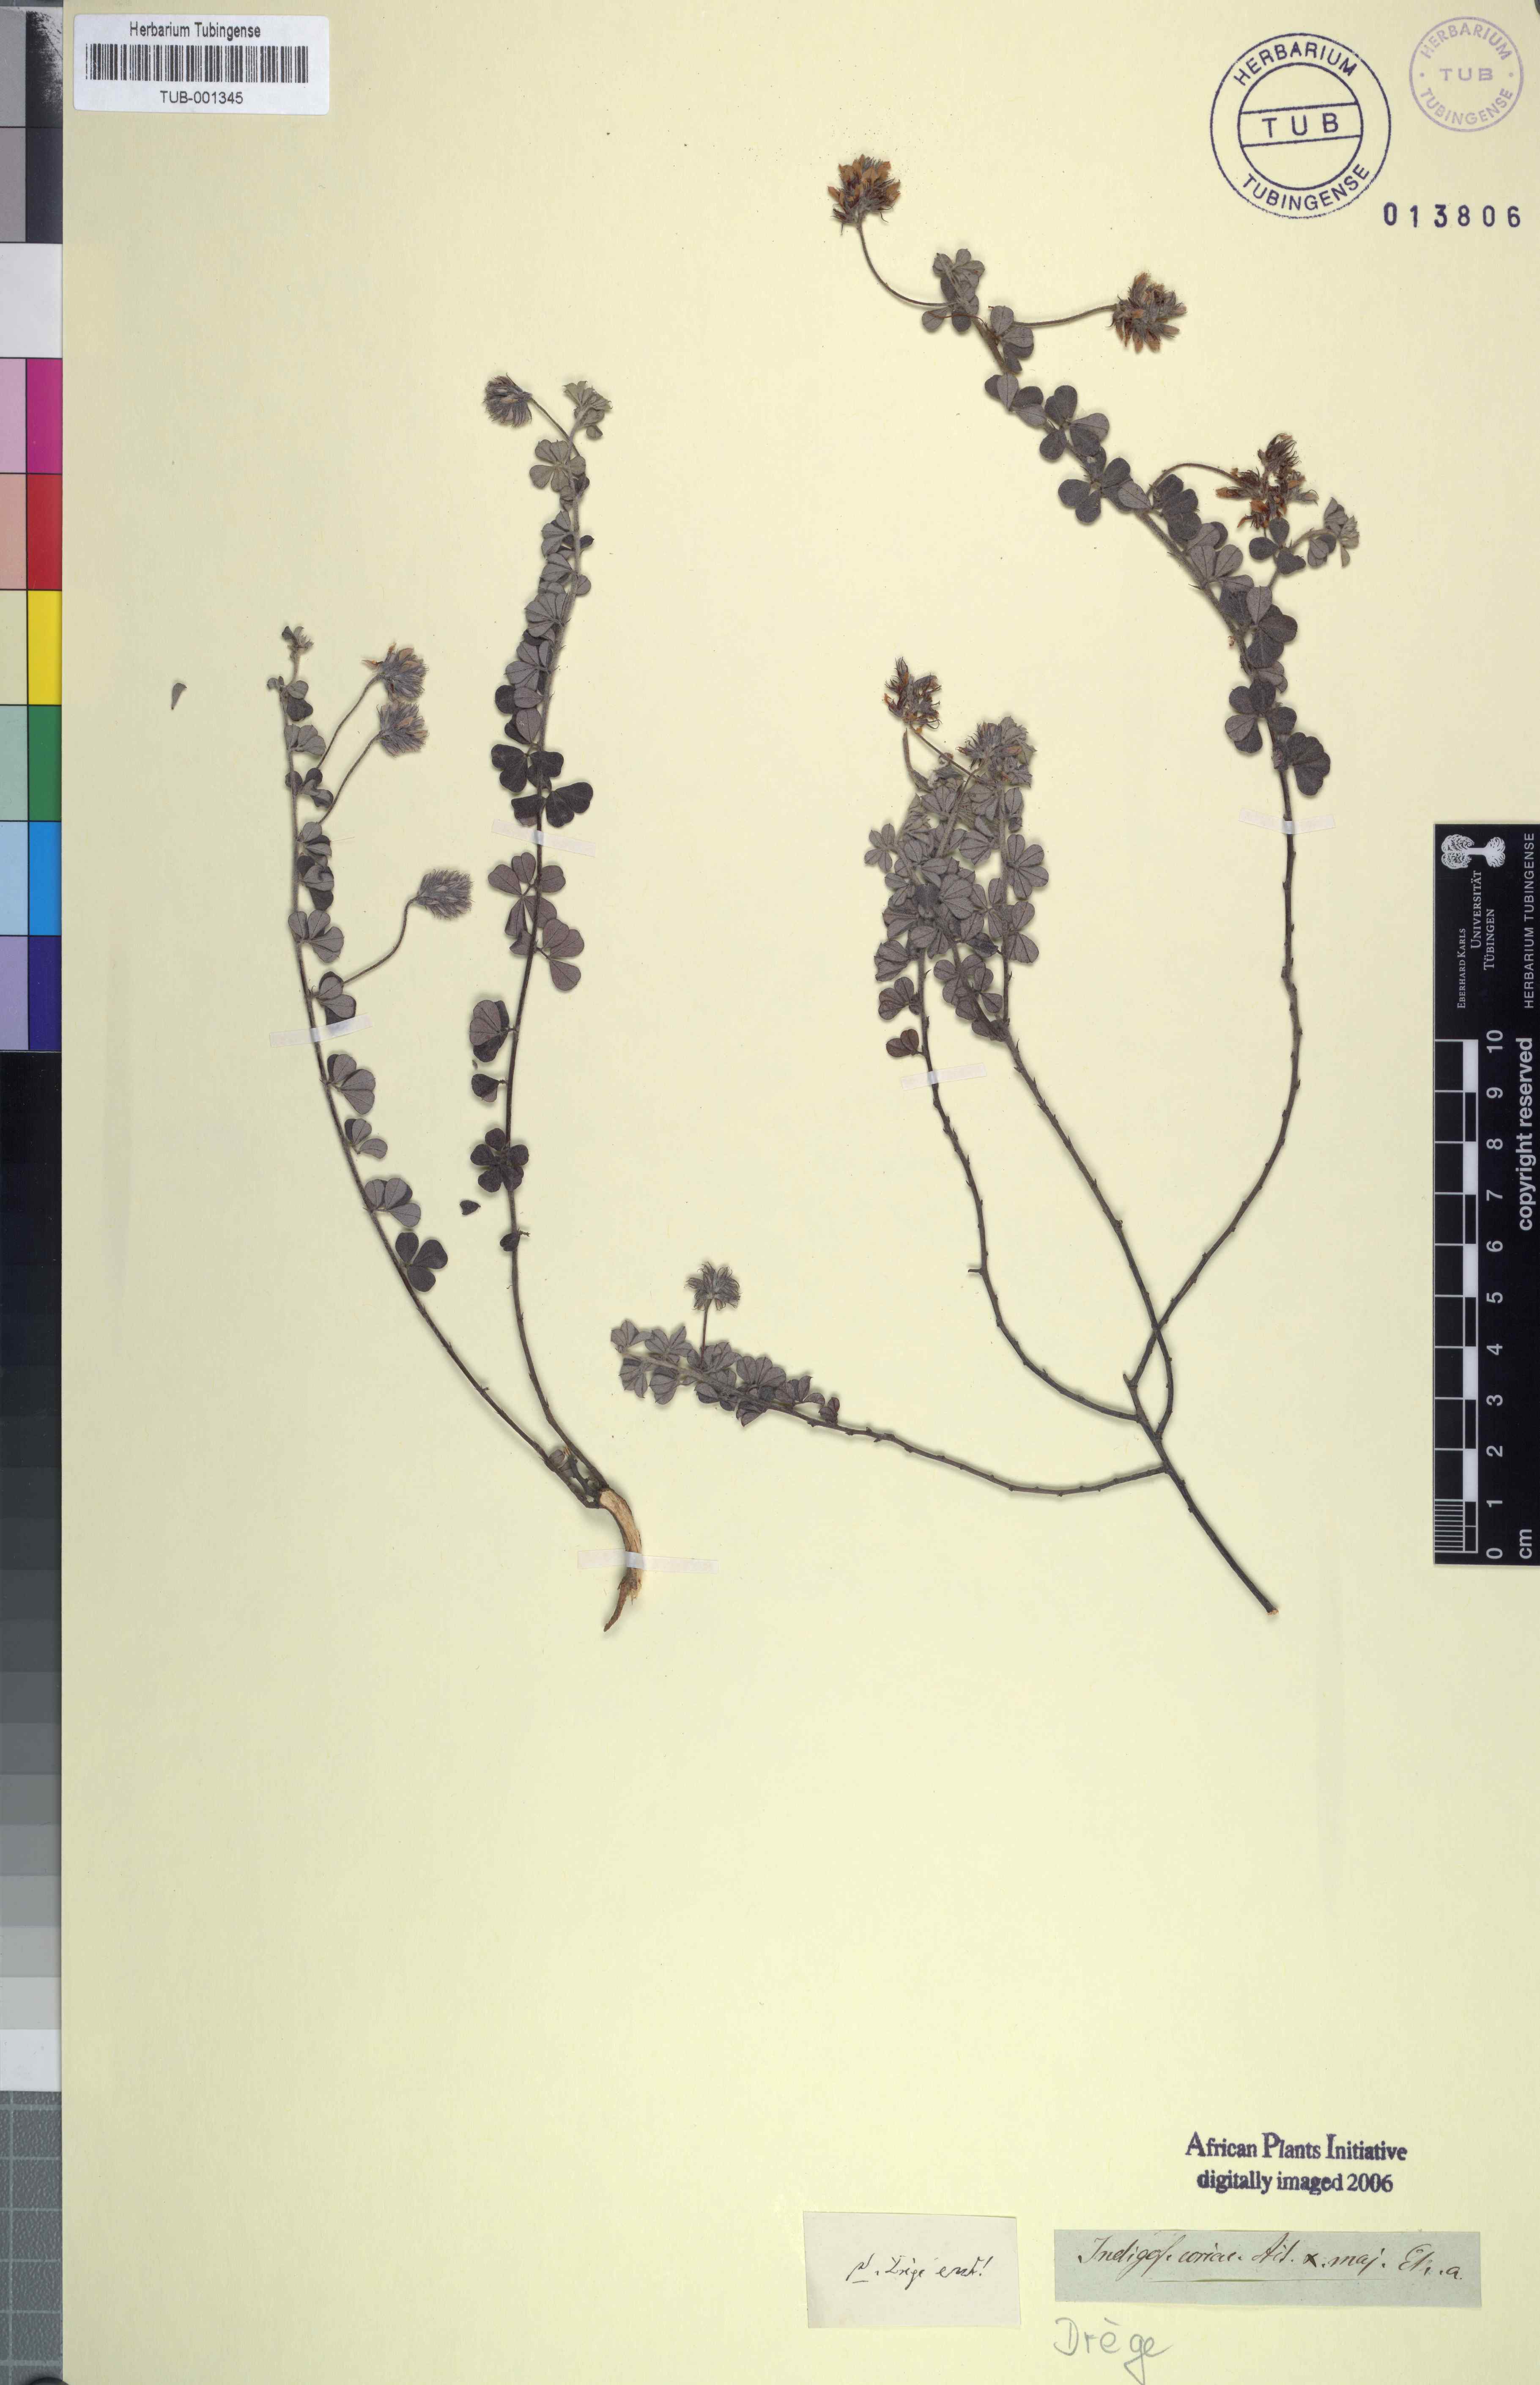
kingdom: Plantae
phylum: Tracheophyta
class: Magnoliopsida
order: Fabales
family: Fabaceae
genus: Indigofera
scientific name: Indigofera mauritanica
